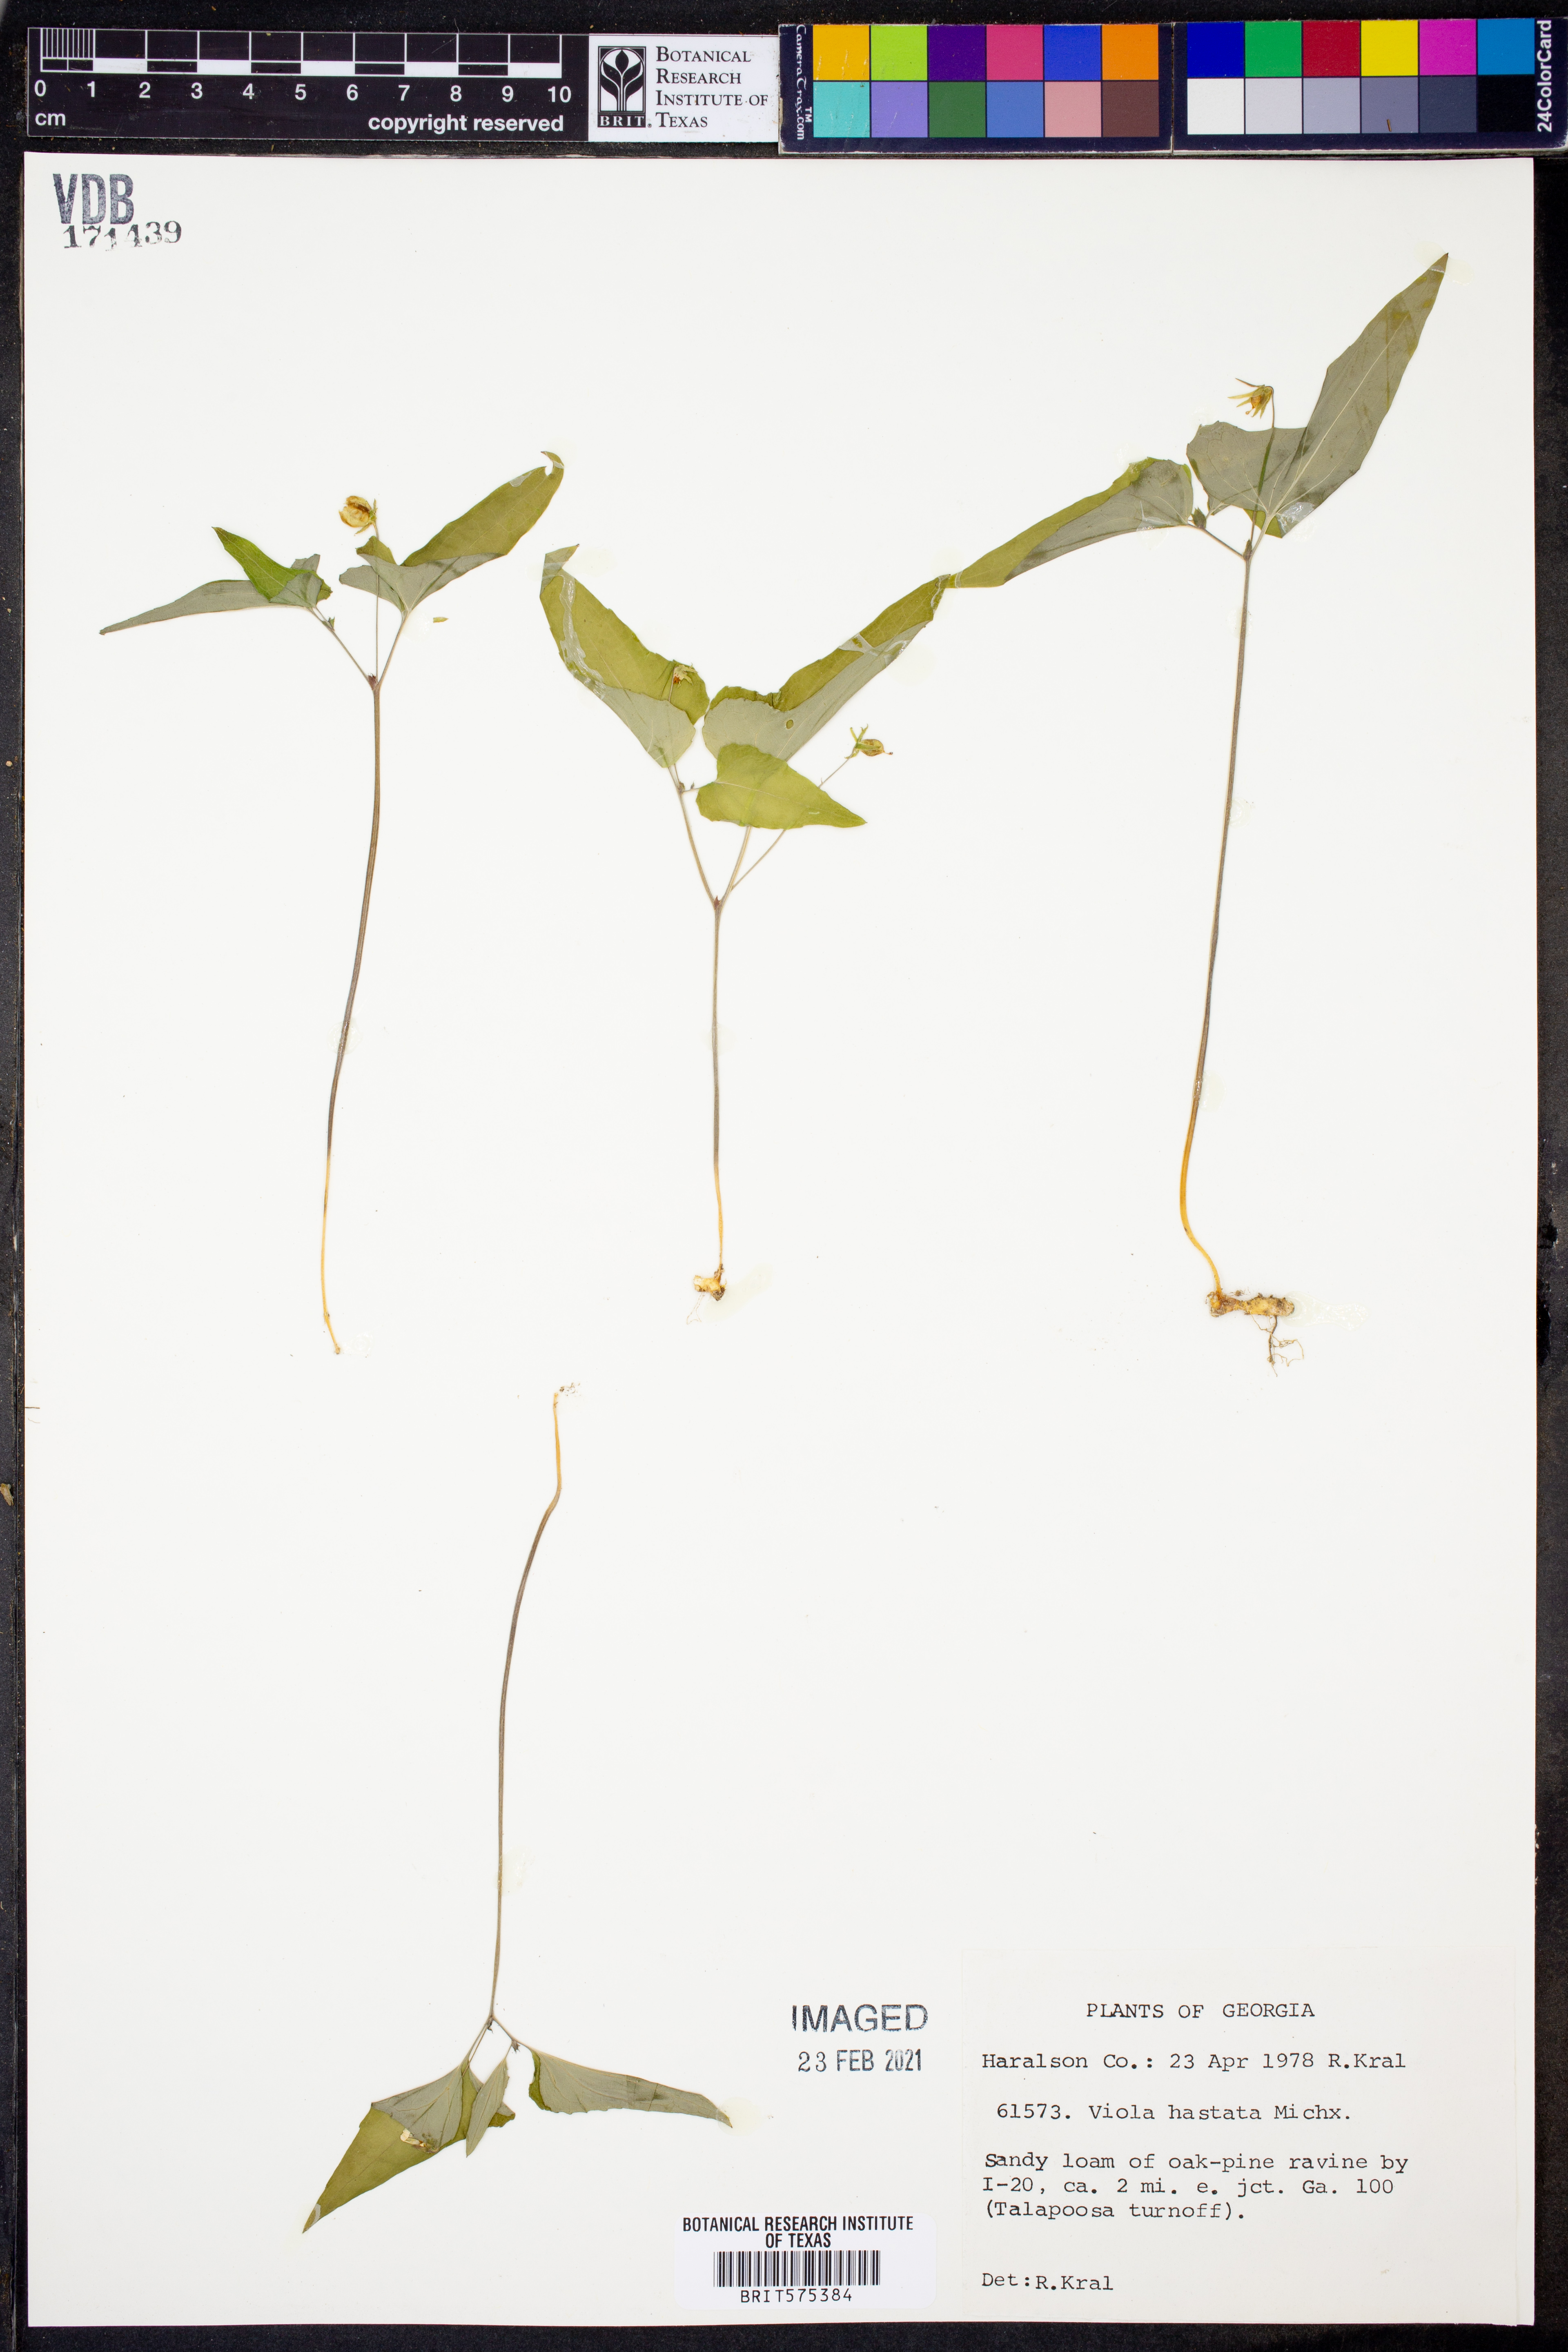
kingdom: Plantae
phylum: Tracheophyta
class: Magnoliopsida
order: Malpighiales
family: Violaceae
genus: Viola
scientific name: Viola hastata
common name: Spear-leaf violet
